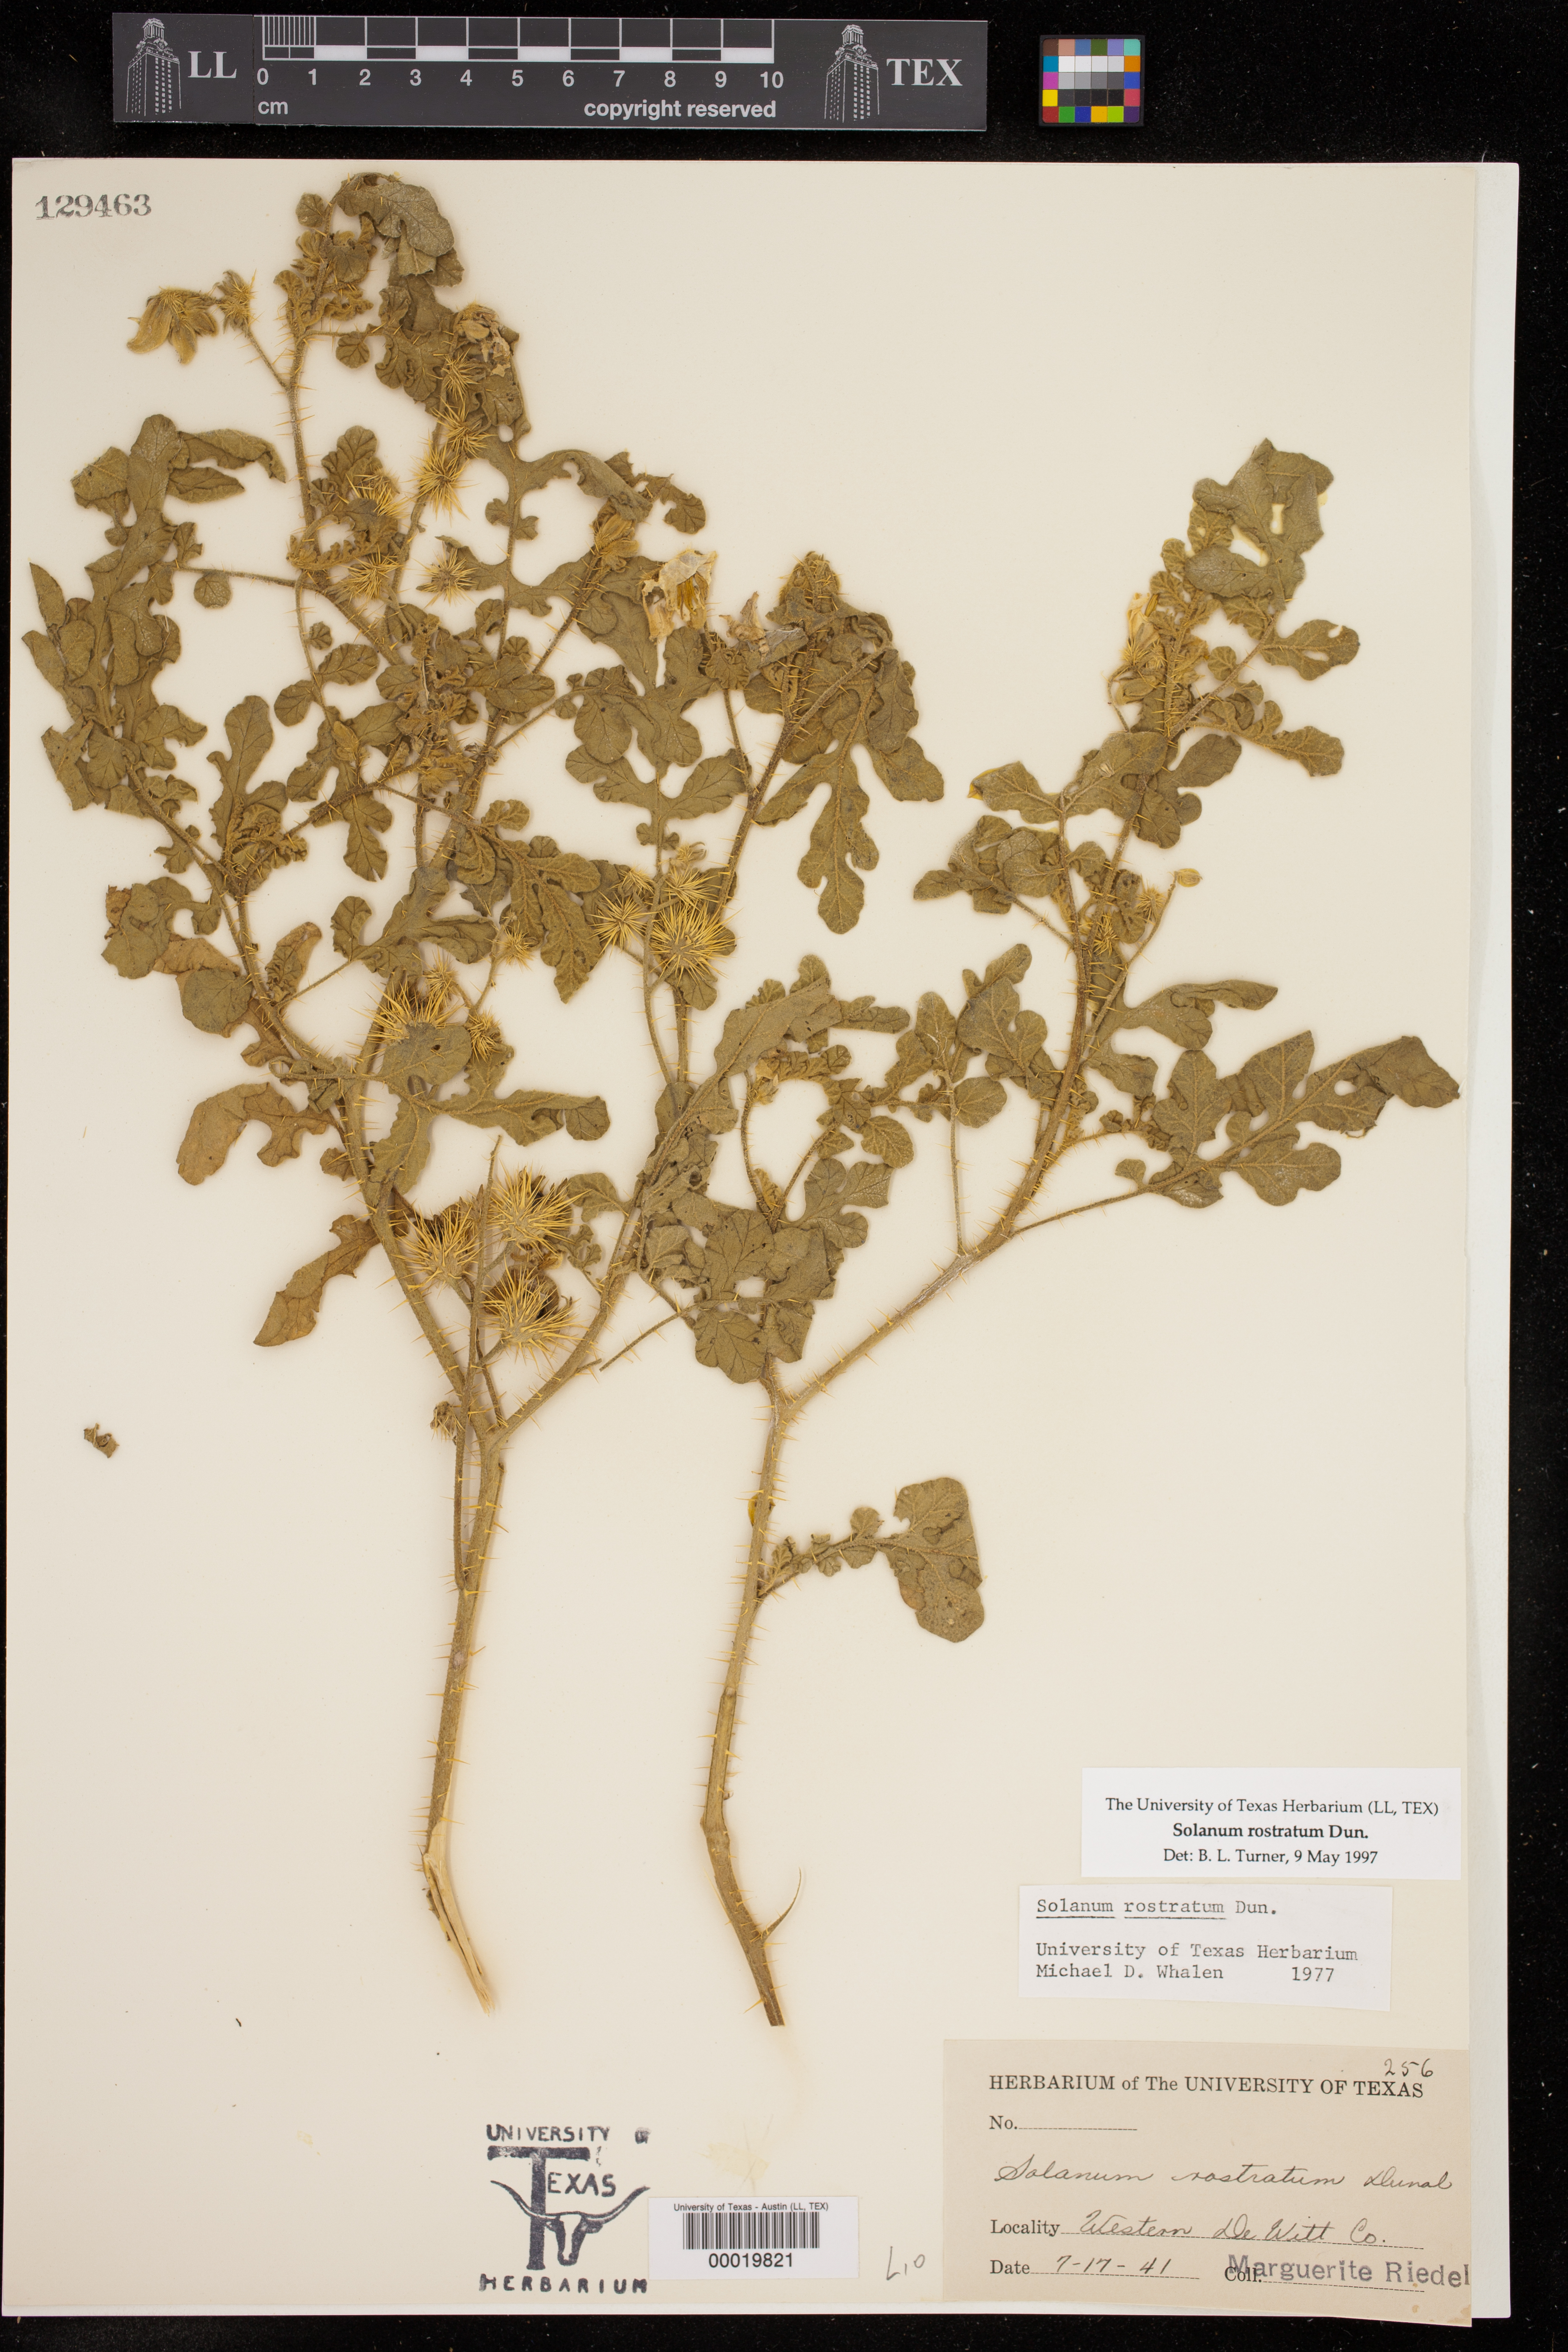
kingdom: Plantae
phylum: Tracheophyta
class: Magnoliopsida
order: Solanales
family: Solanaceae
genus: Solanum
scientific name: Solanum angustifolium
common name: Buffalobur nightshade
